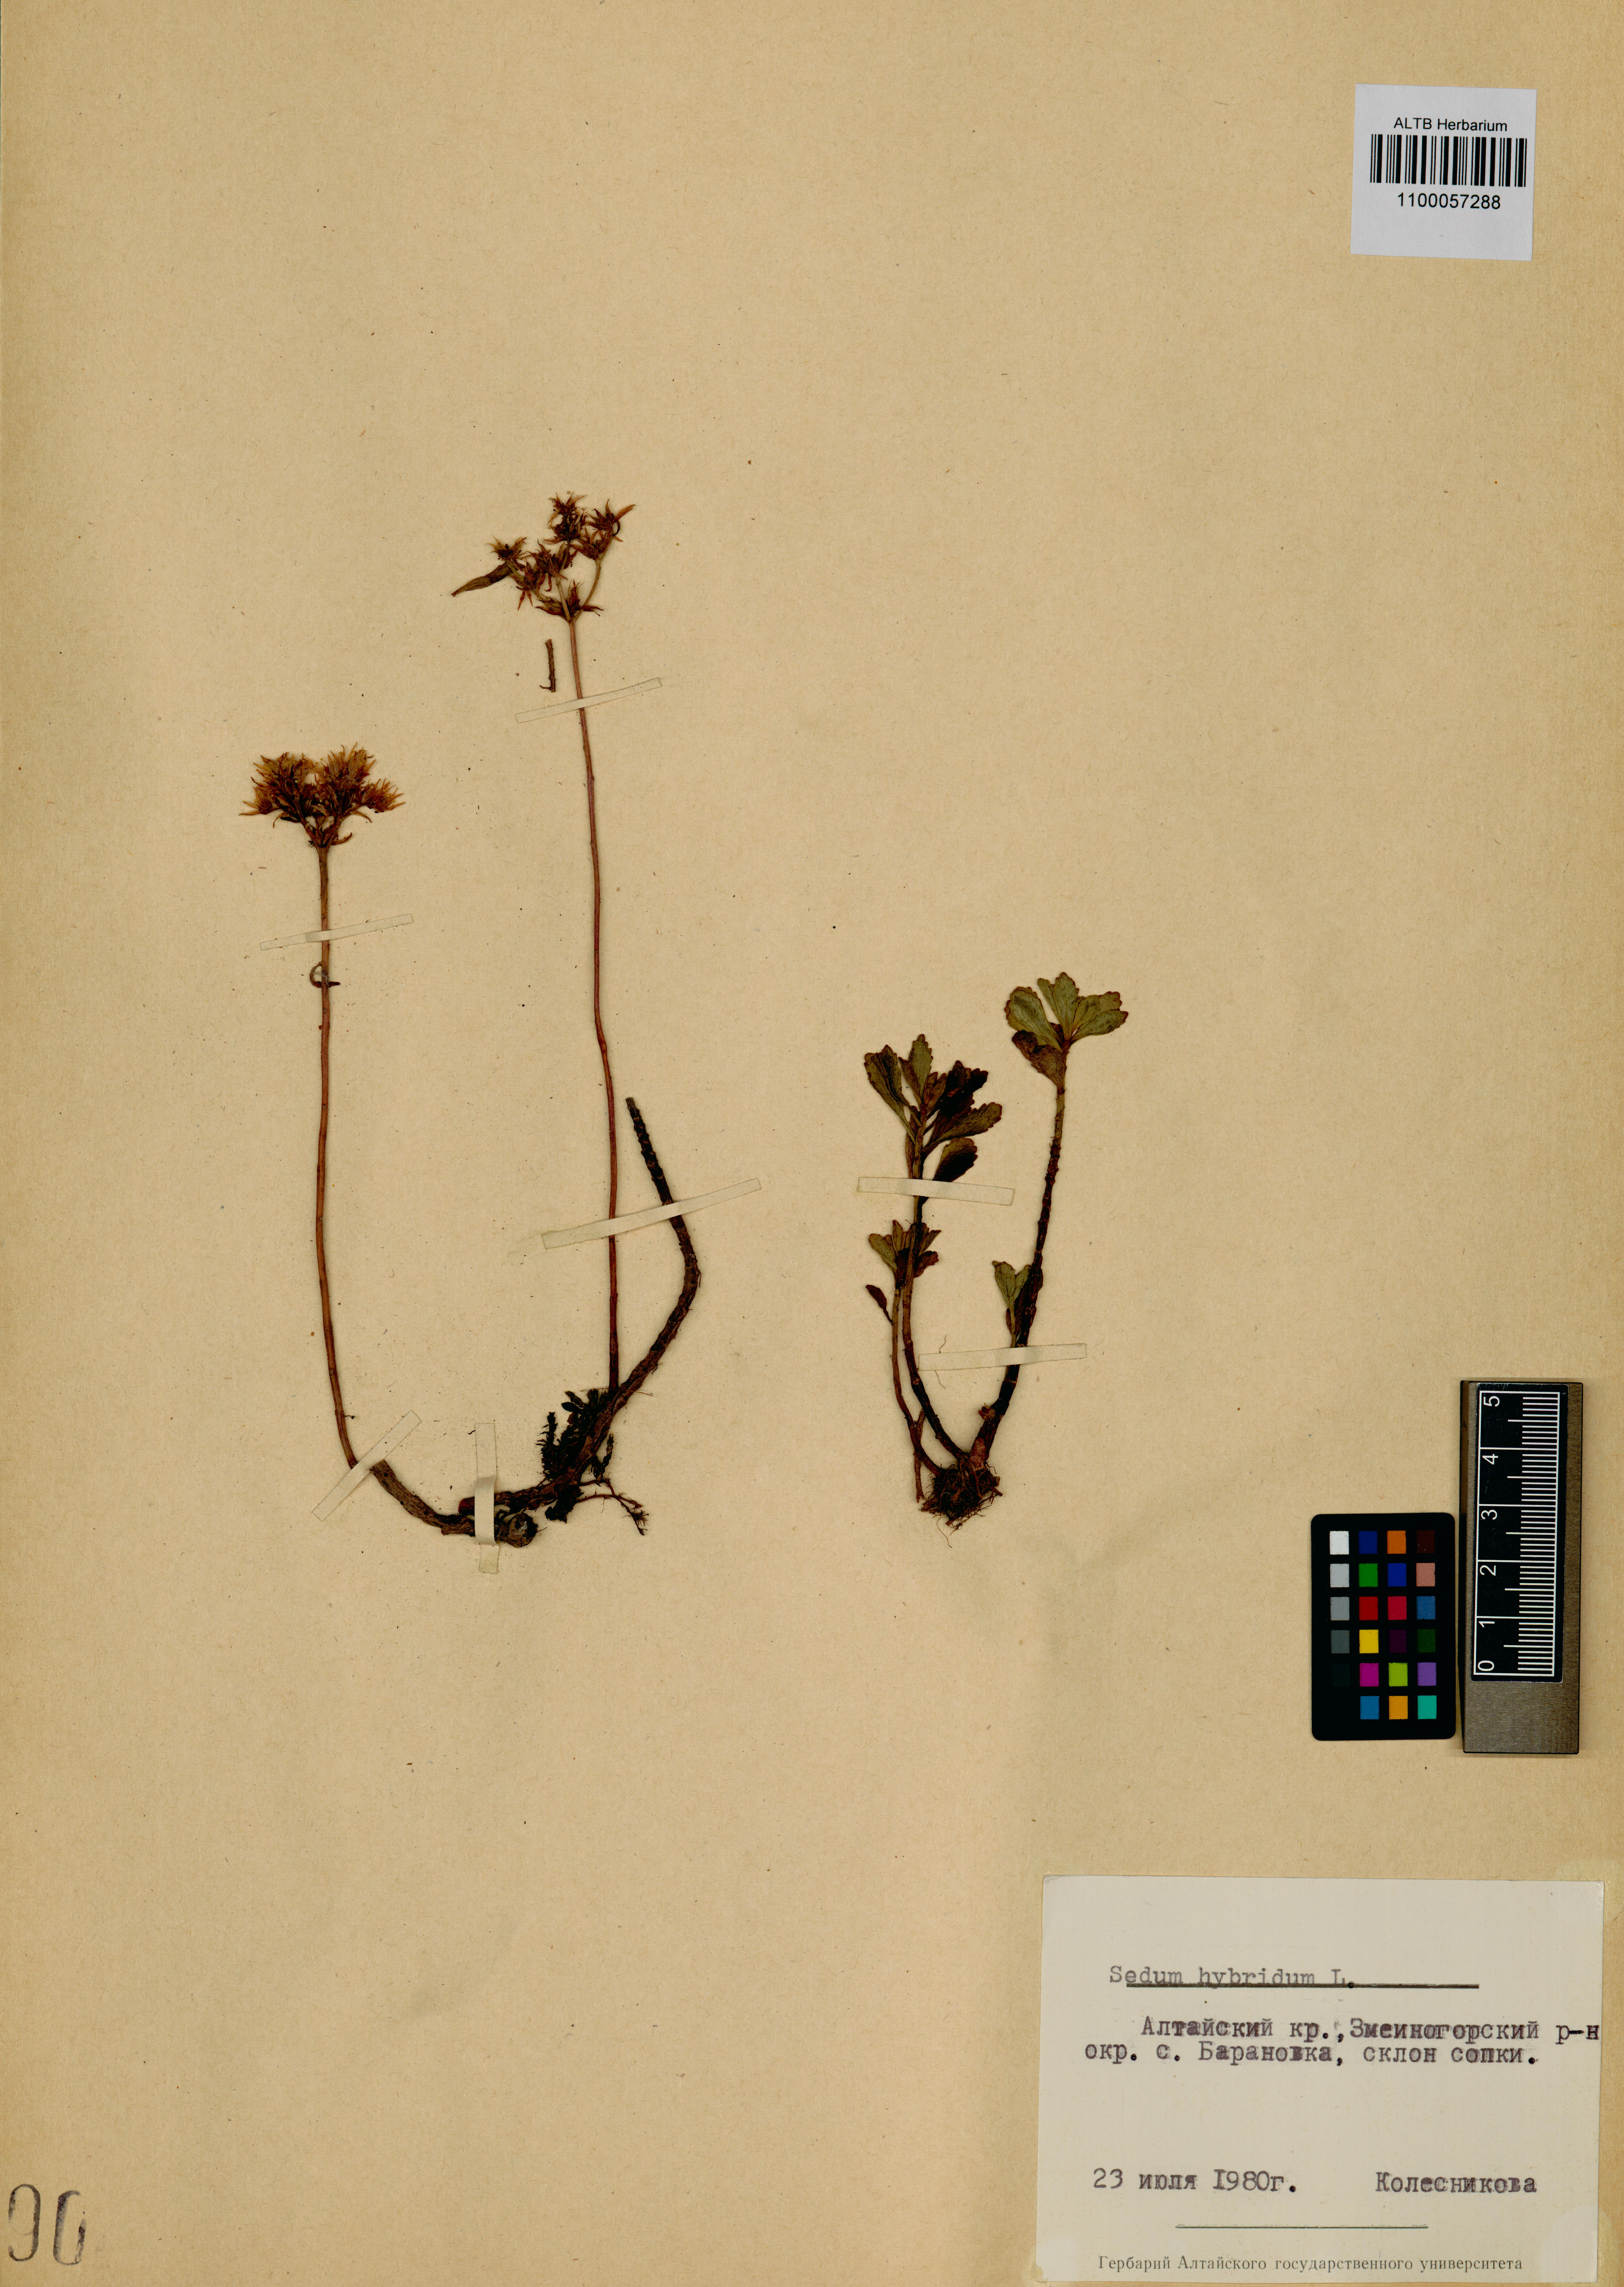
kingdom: Plantae
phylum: Tracheophyta
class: Magnoliopsida
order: Saxifragales
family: Crassulaceae
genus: Phedimus
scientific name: Phedimus hybridus
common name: Hybrid stonecrop
